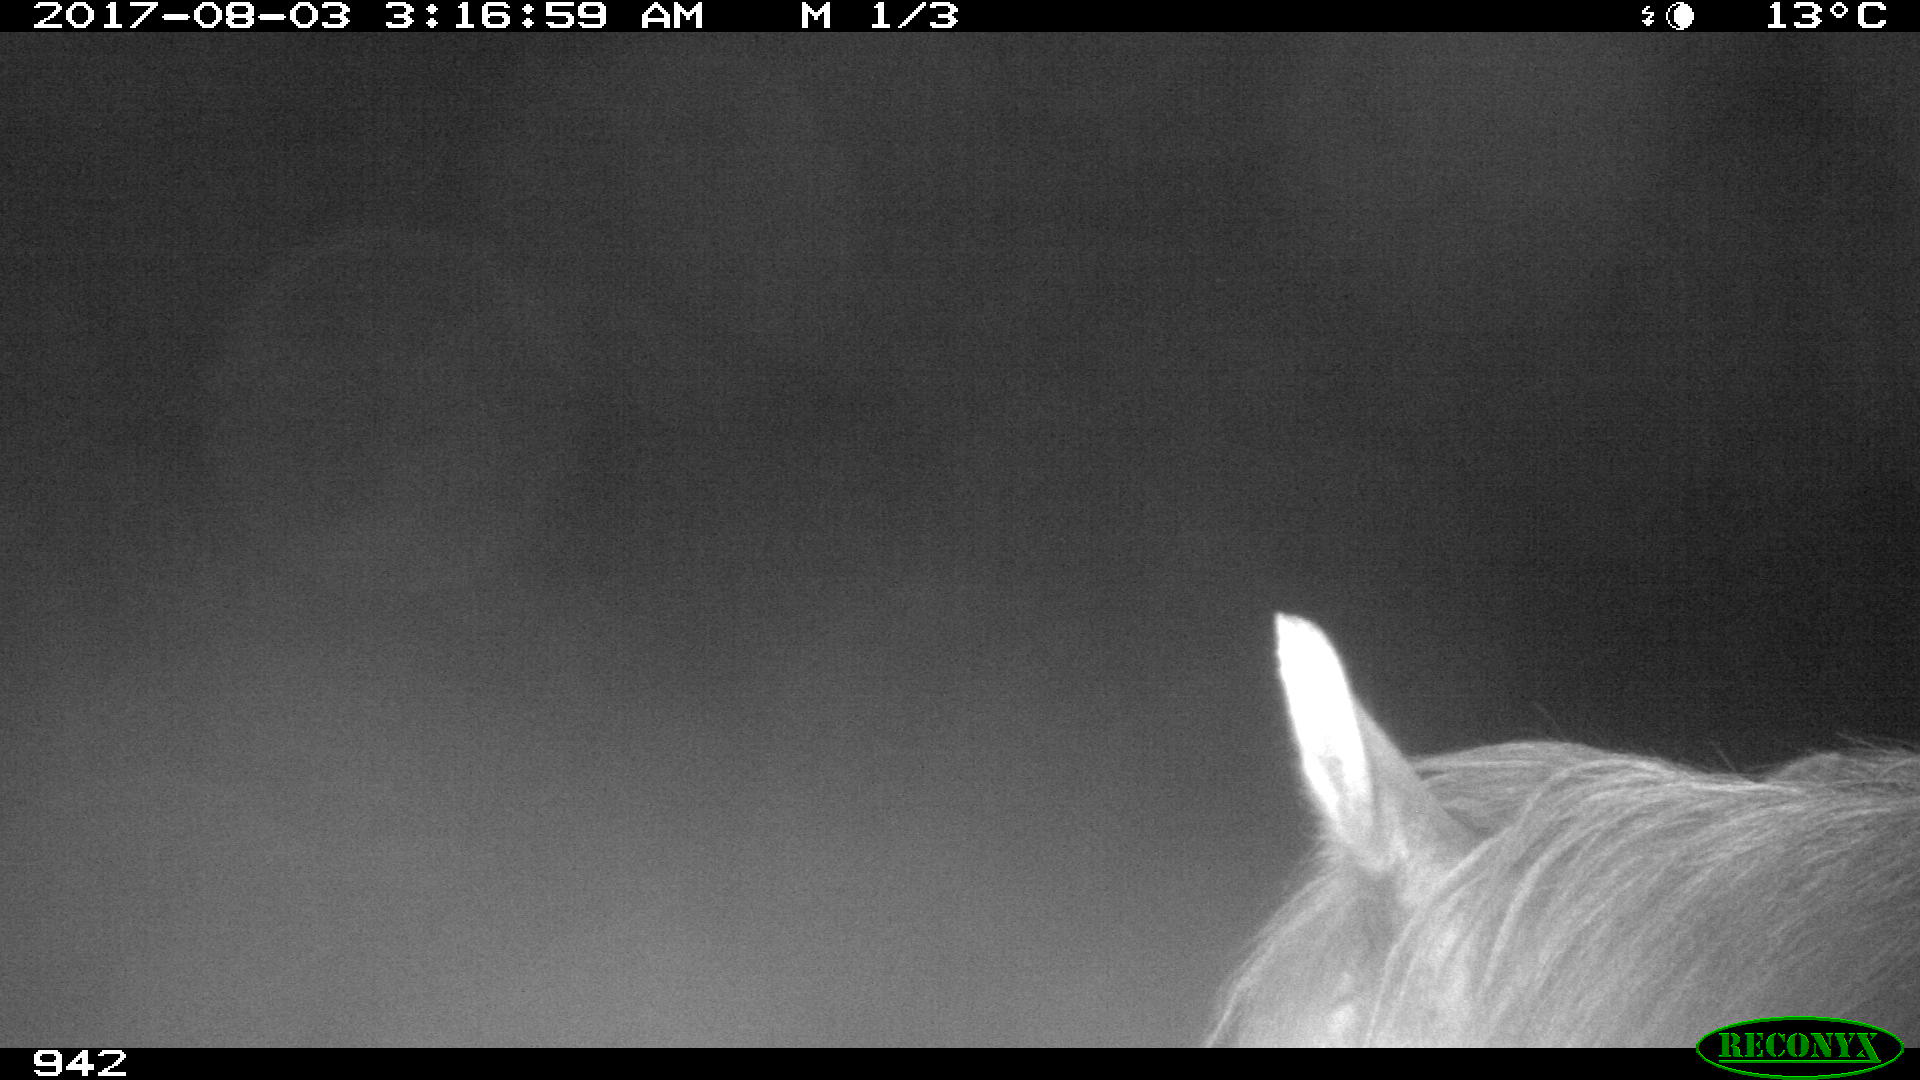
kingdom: Animalia
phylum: Chordata
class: Mammalia
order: Perissodactyla
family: Equidae
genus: Equus
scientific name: Equus caballus
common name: Horse
